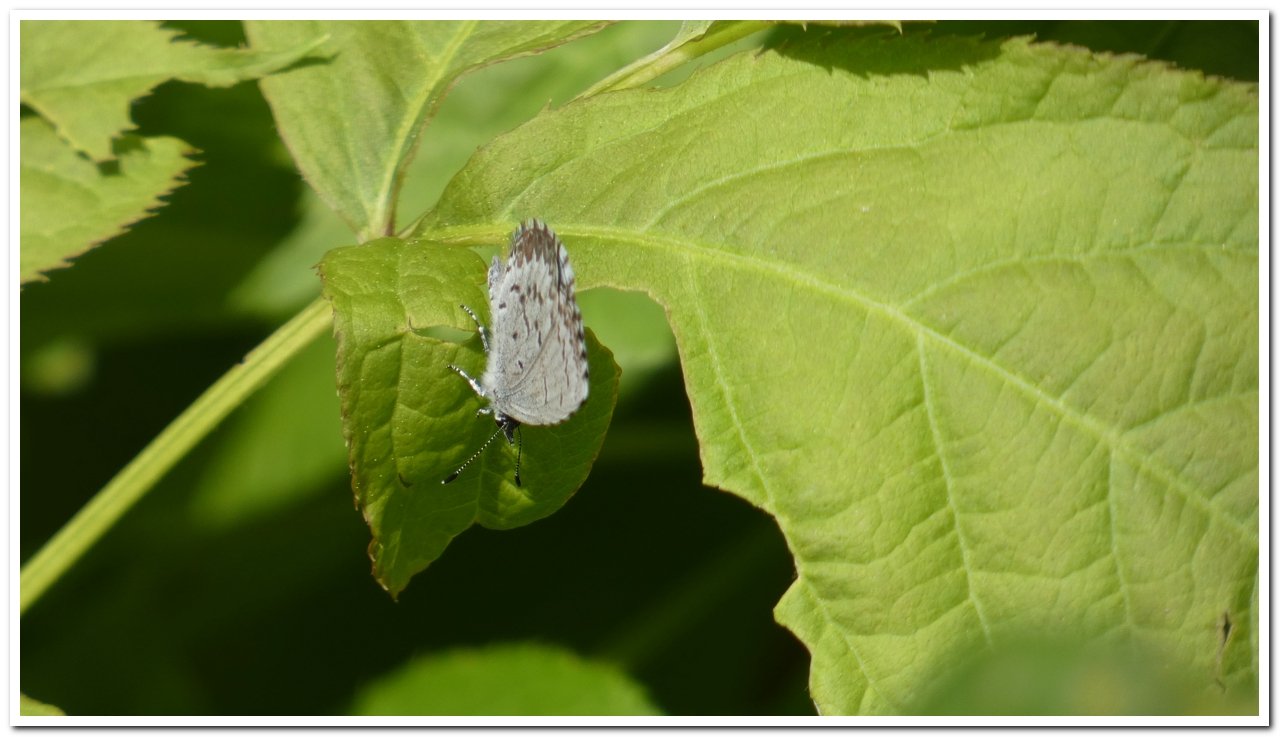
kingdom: Animalia
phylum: Arthropoda
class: Insecta
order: Lepidoptera
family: Lycaenidae
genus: Celastrina
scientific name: Celastrina lucia
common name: Northern Spring Azure
